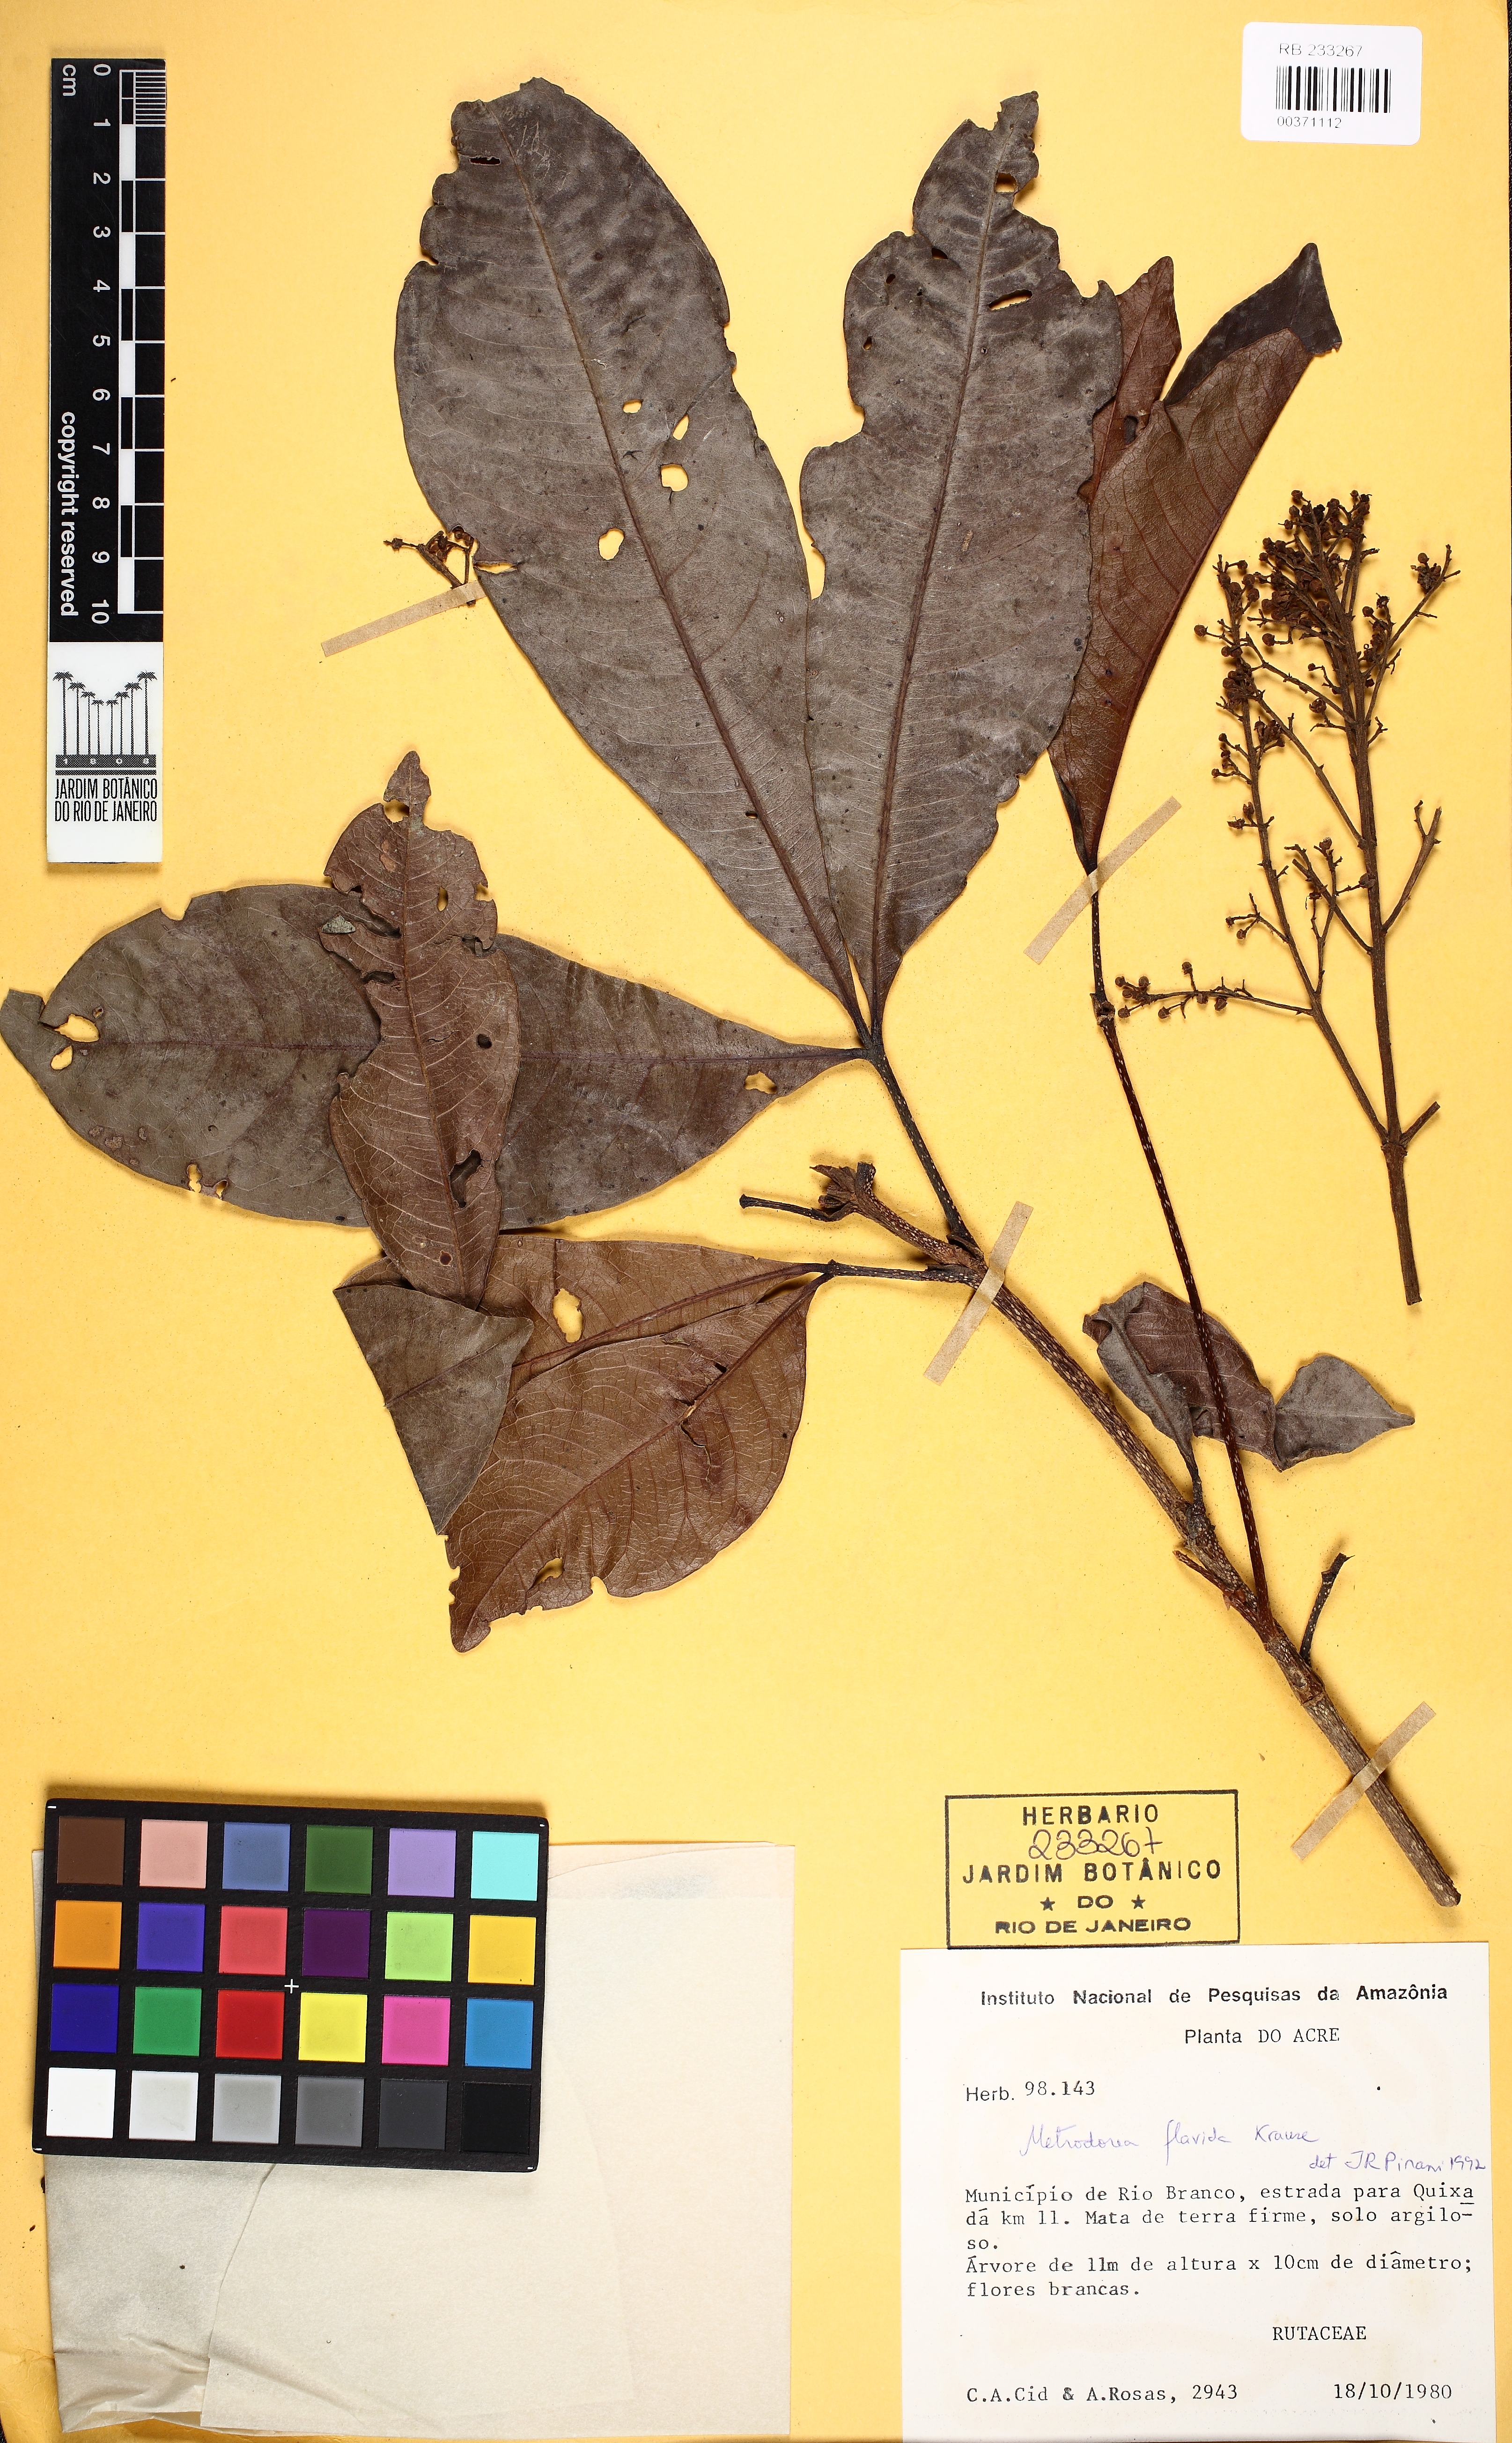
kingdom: Plantae
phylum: Tracheophyta
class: Magnoliopsida
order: Sapindales
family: Rutaceae
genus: Metrodorea
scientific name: Metrodorea flavida
